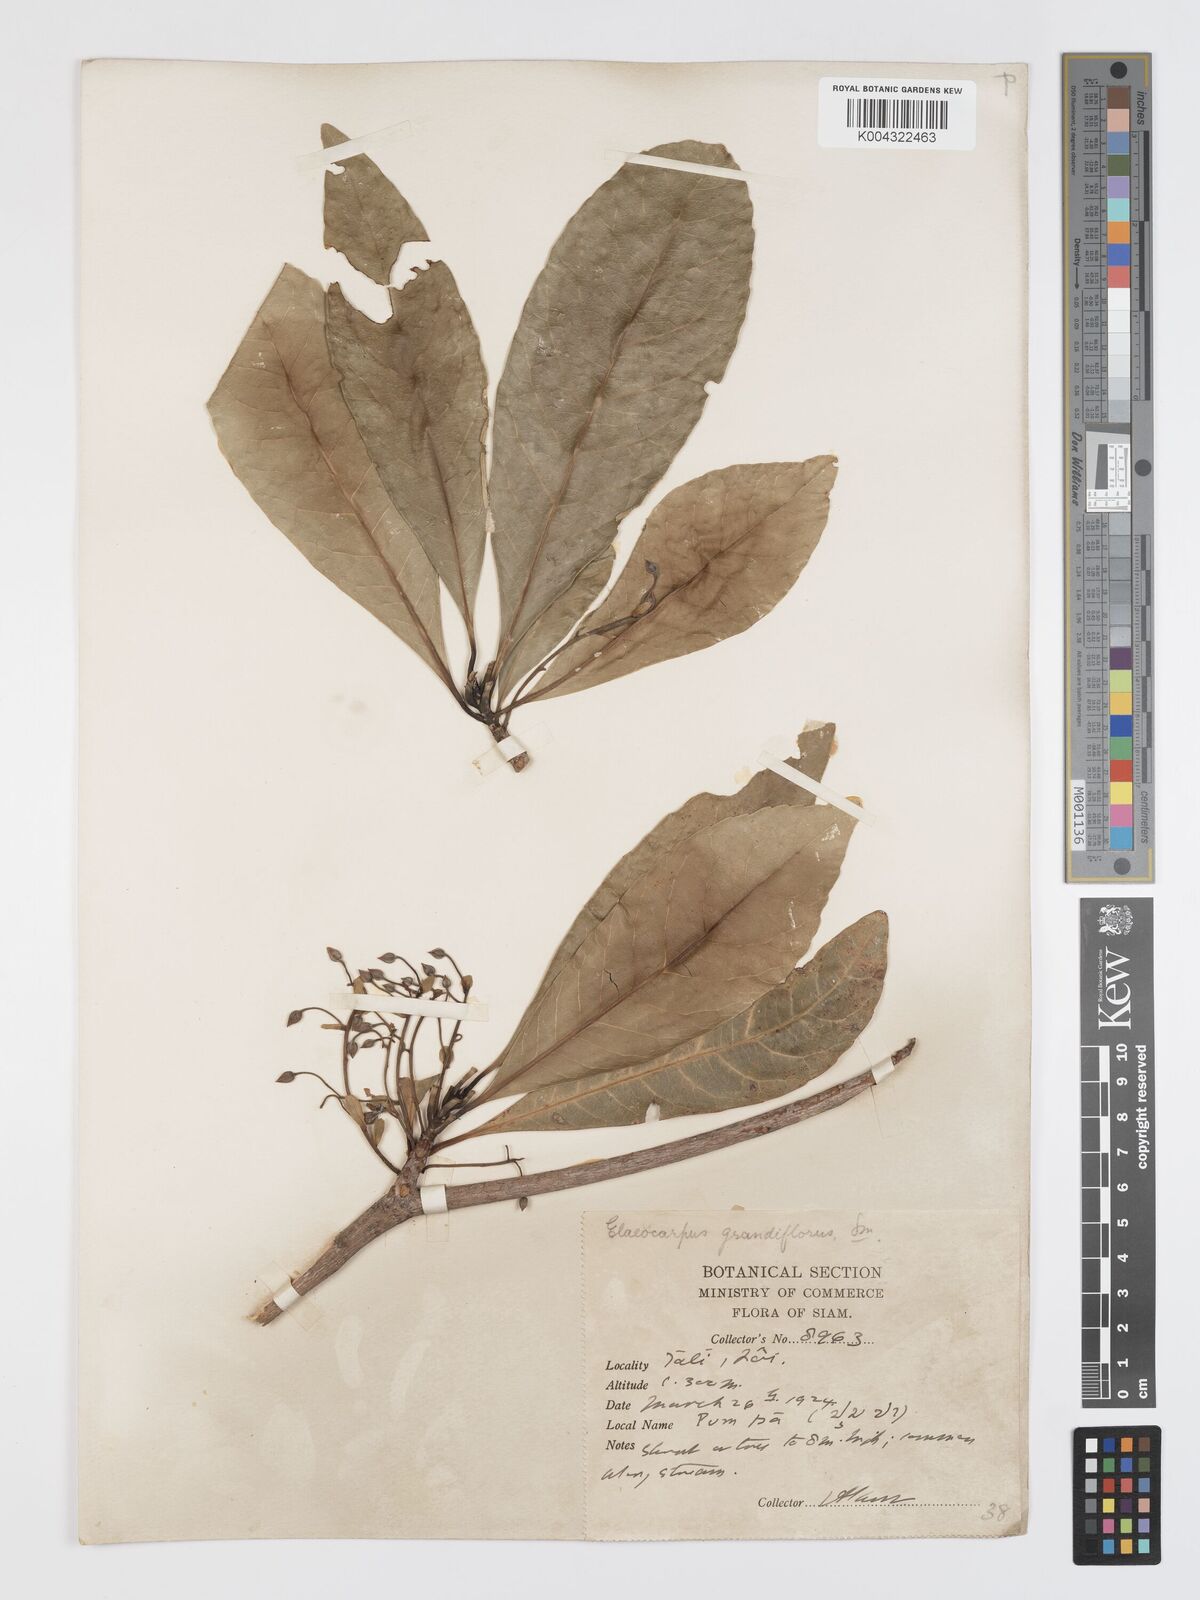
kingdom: Plantae
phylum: Tracheophyta
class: Magnoliopsida
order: Oxalidales
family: Elaeocarpaceae
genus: Elaeocarpus
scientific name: Elaeocarpus grandiflorus
